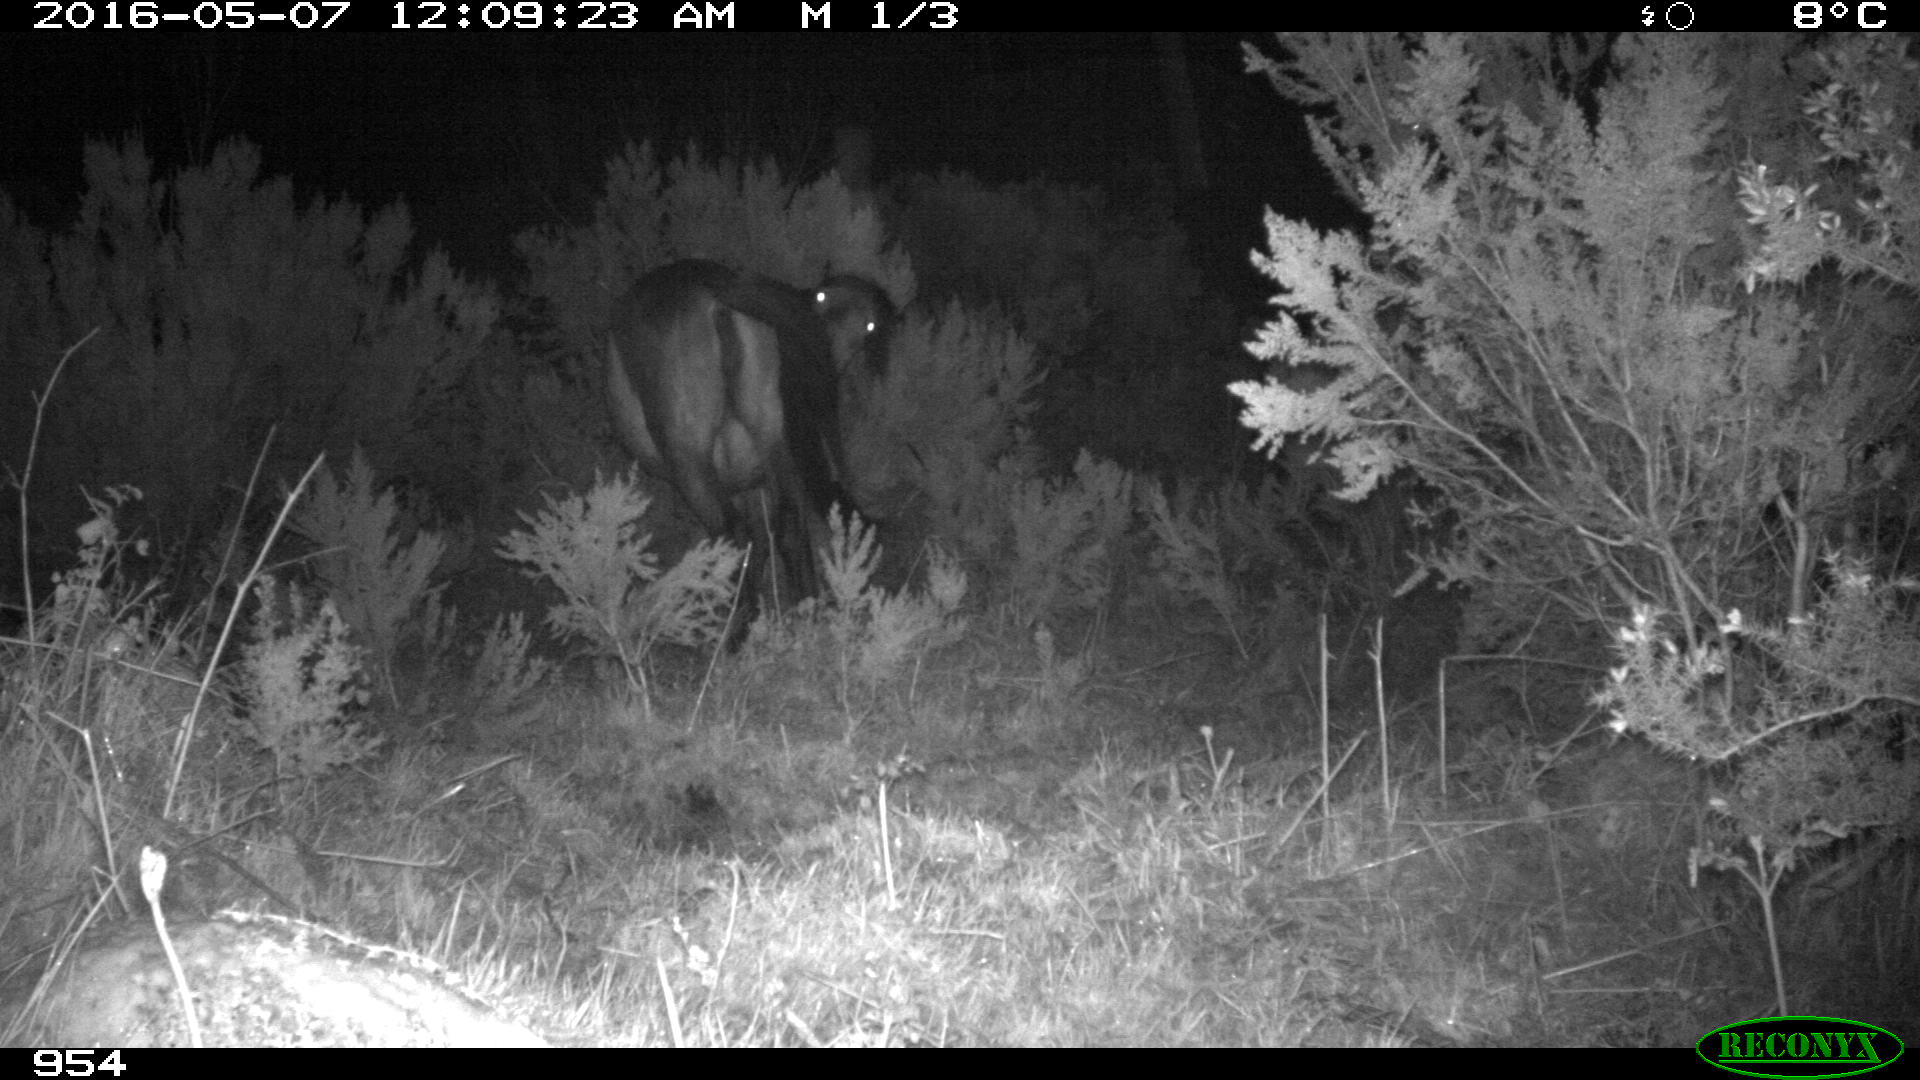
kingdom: Animalia
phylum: Chordata
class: Mammalia
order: Perissodactyla
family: Equidae
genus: Equus
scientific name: Equus caballus
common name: Horse
